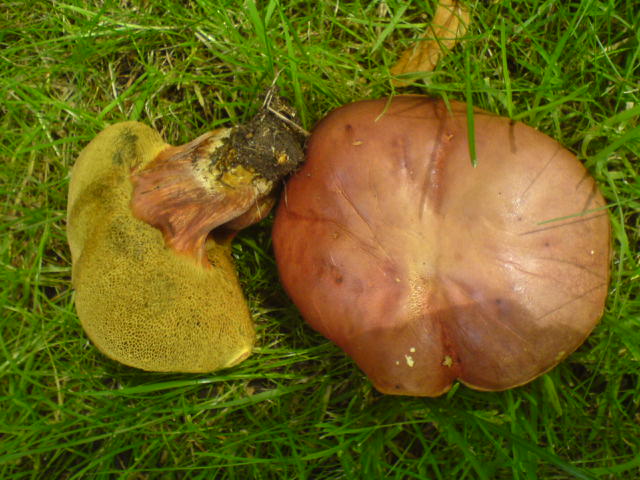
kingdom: Fungi
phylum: Basidiomycota
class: Agaricomycetes
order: Boletales
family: Boletaceae
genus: Hortiboletus
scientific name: Hortiboletus rubellus
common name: blodrød rørhat
